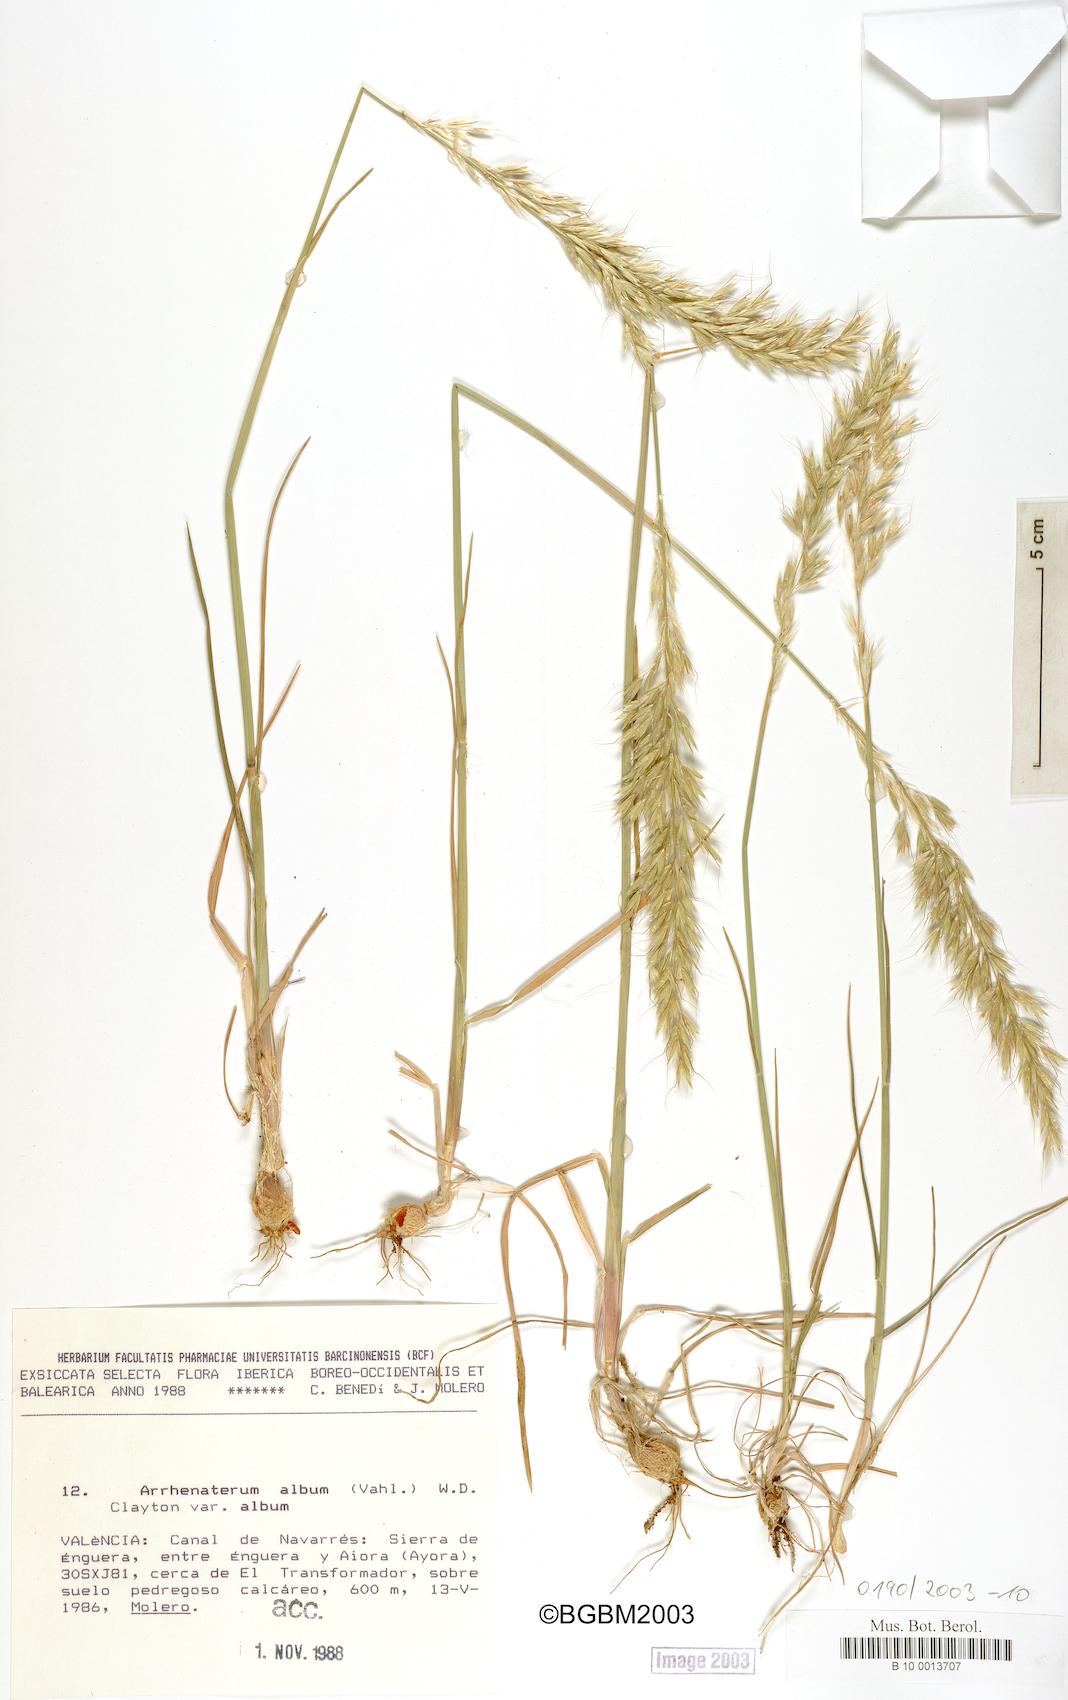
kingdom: Plantae
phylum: Tracheophyta
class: Liliopsida
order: Poales
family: Poaceae
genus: Arrhenatherum
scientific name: Arrhenatherum album
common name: Tall oat grass
